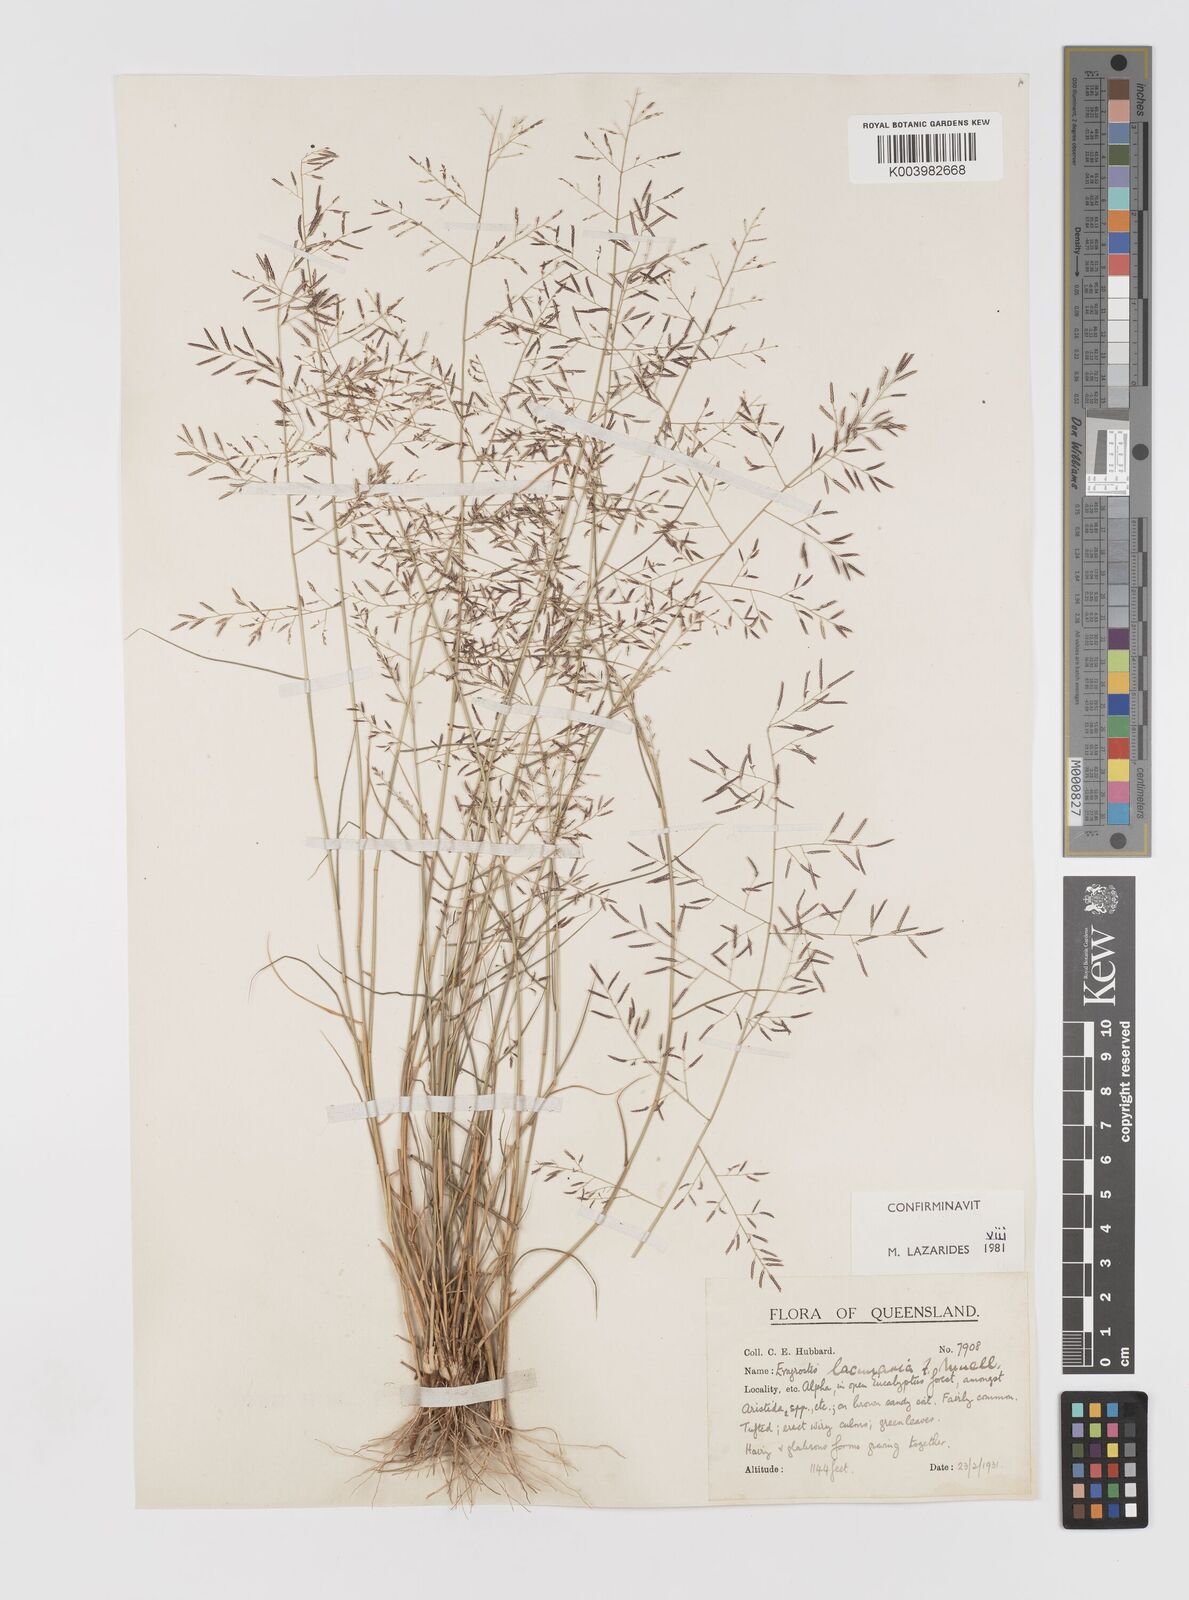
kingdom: Plantae
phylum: Tracheophyta
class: Liliopsida
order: Poales
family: Poaceae
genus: Eragrostis
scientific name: Eragrostis lacunaria
